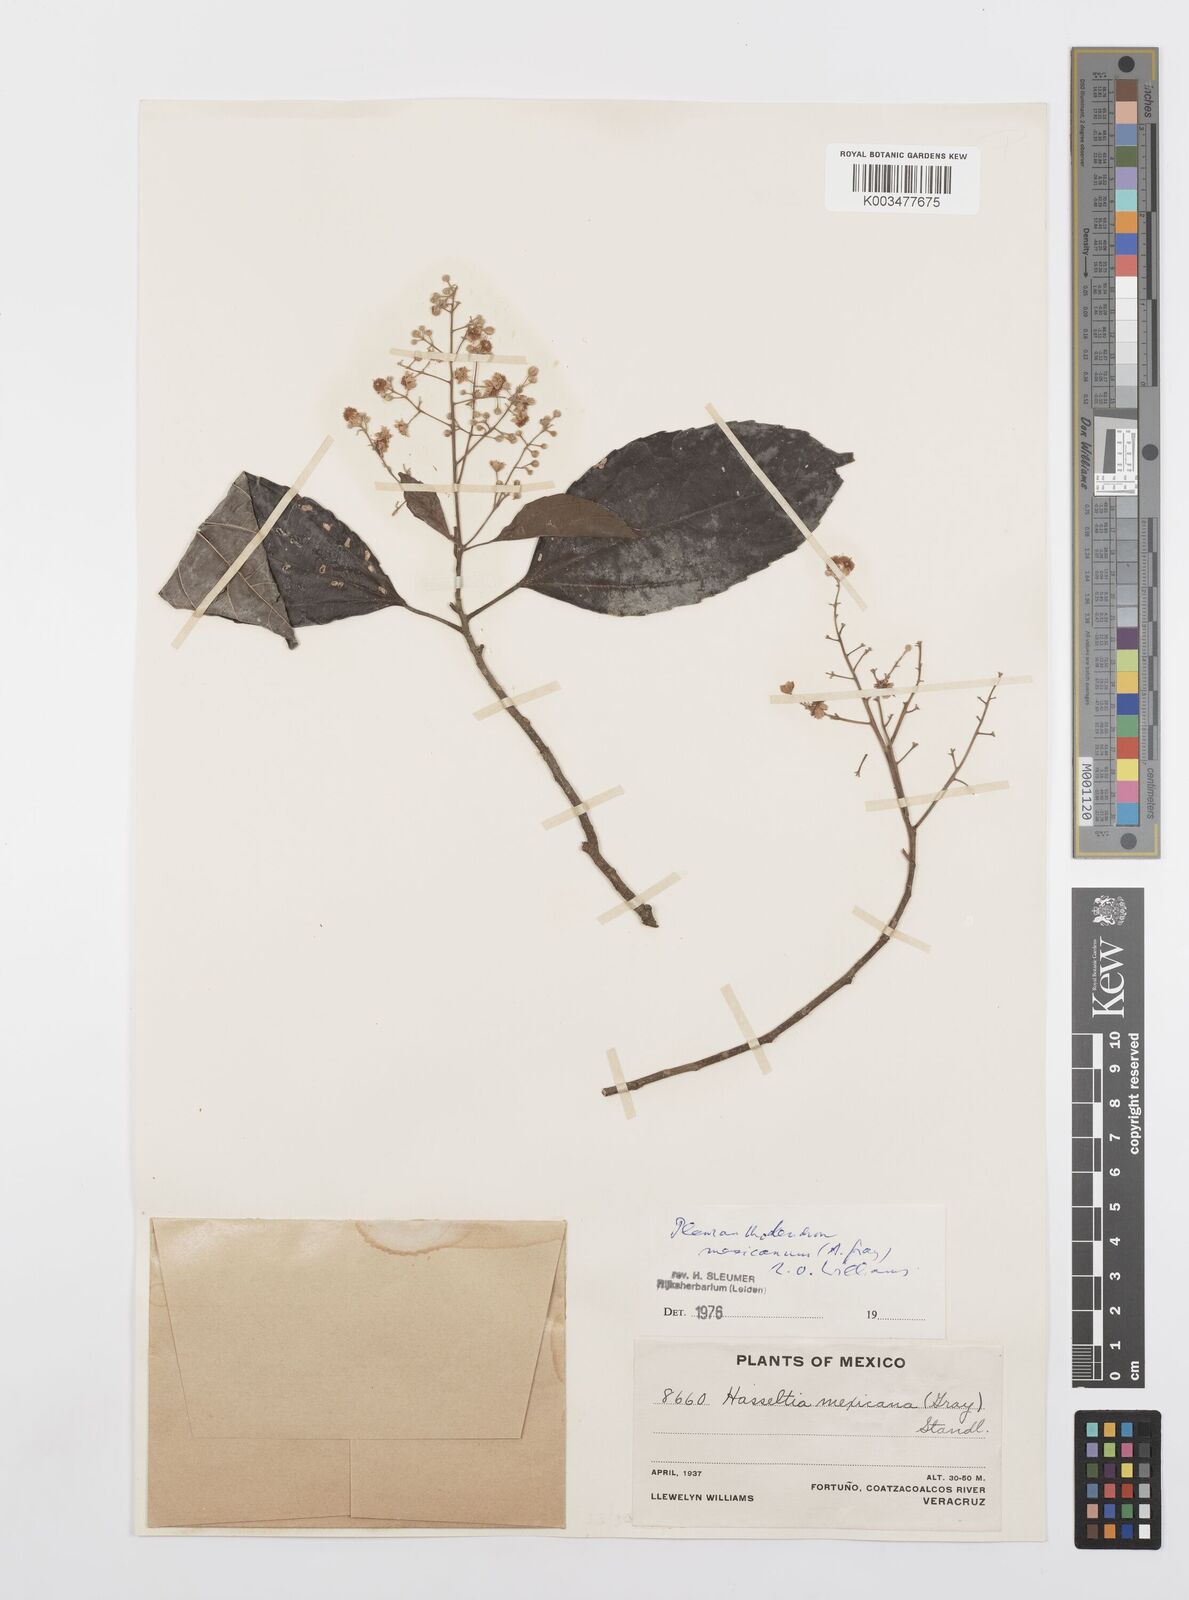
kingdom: Plantae
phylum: Tracheophyta
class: Magnoliopsida
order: Malpighiales
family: Salicaceae
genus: Pleuranthodendron
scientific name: Pleuranthodendron lindenii
